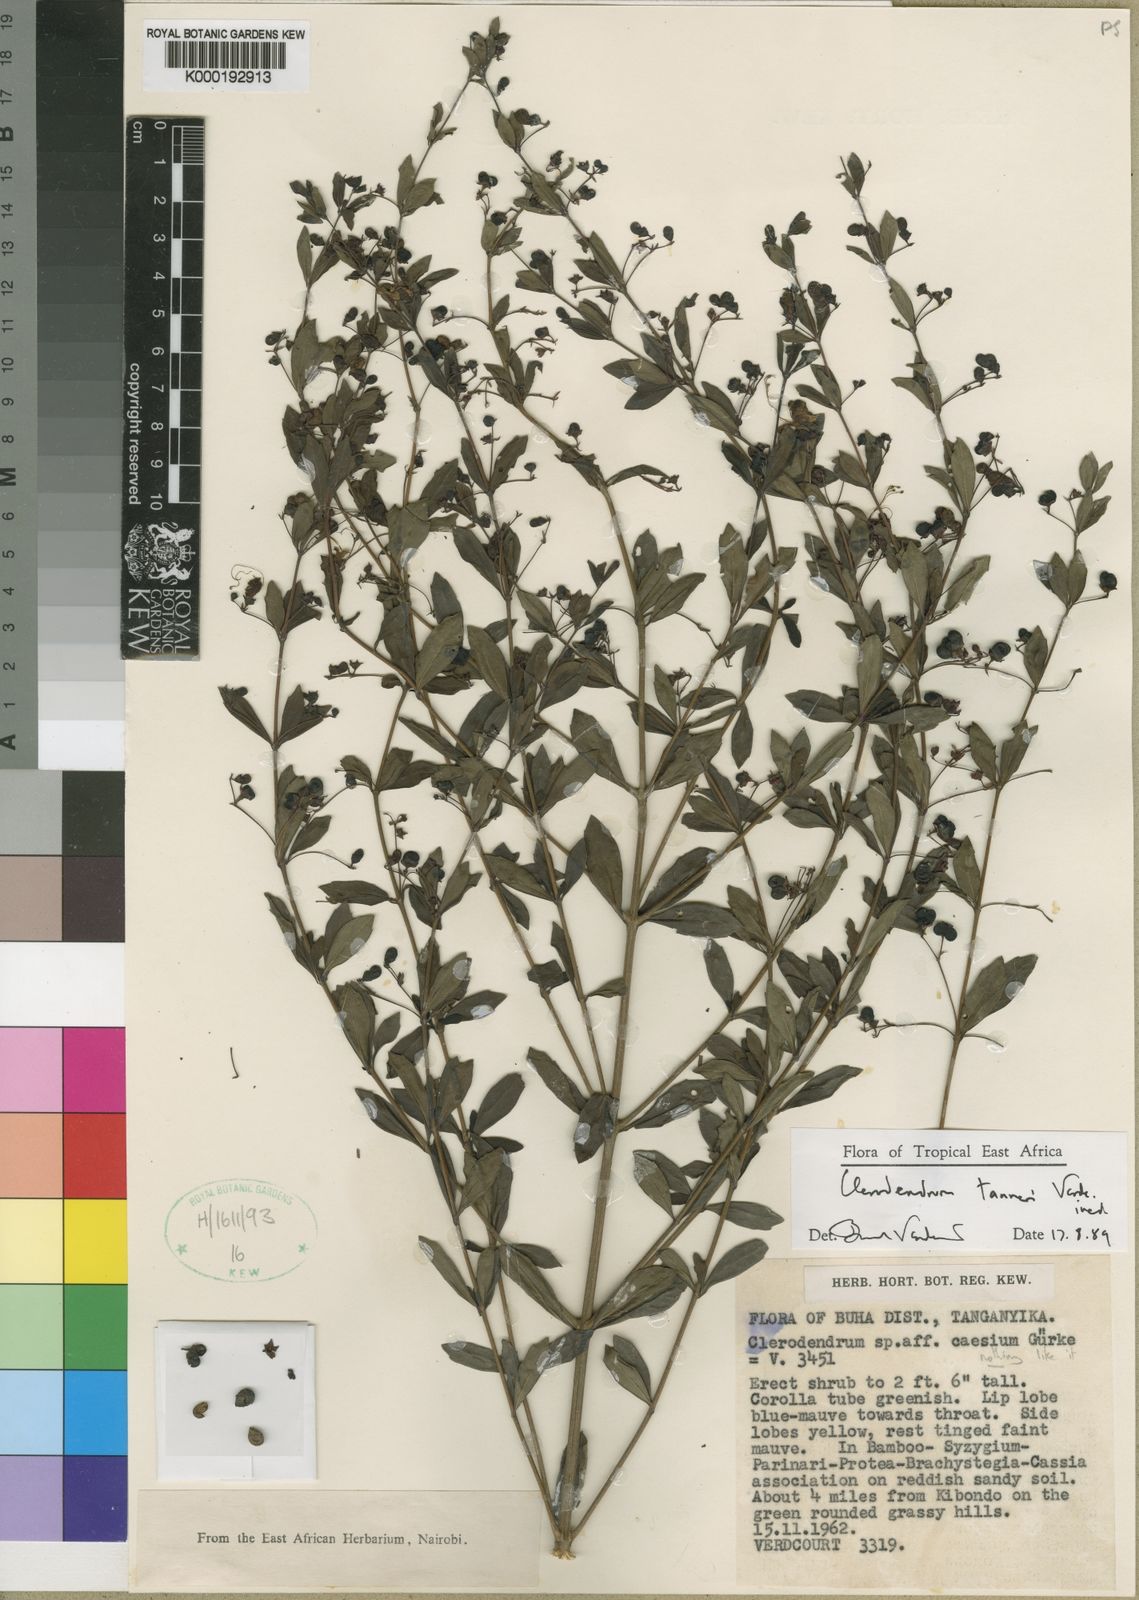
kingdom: Plantae
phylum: Tracheophyta
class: Magnoliopsida
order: Lamiales
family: Lamiaceae
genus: Rotheca
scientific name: Rotheca tanneri
